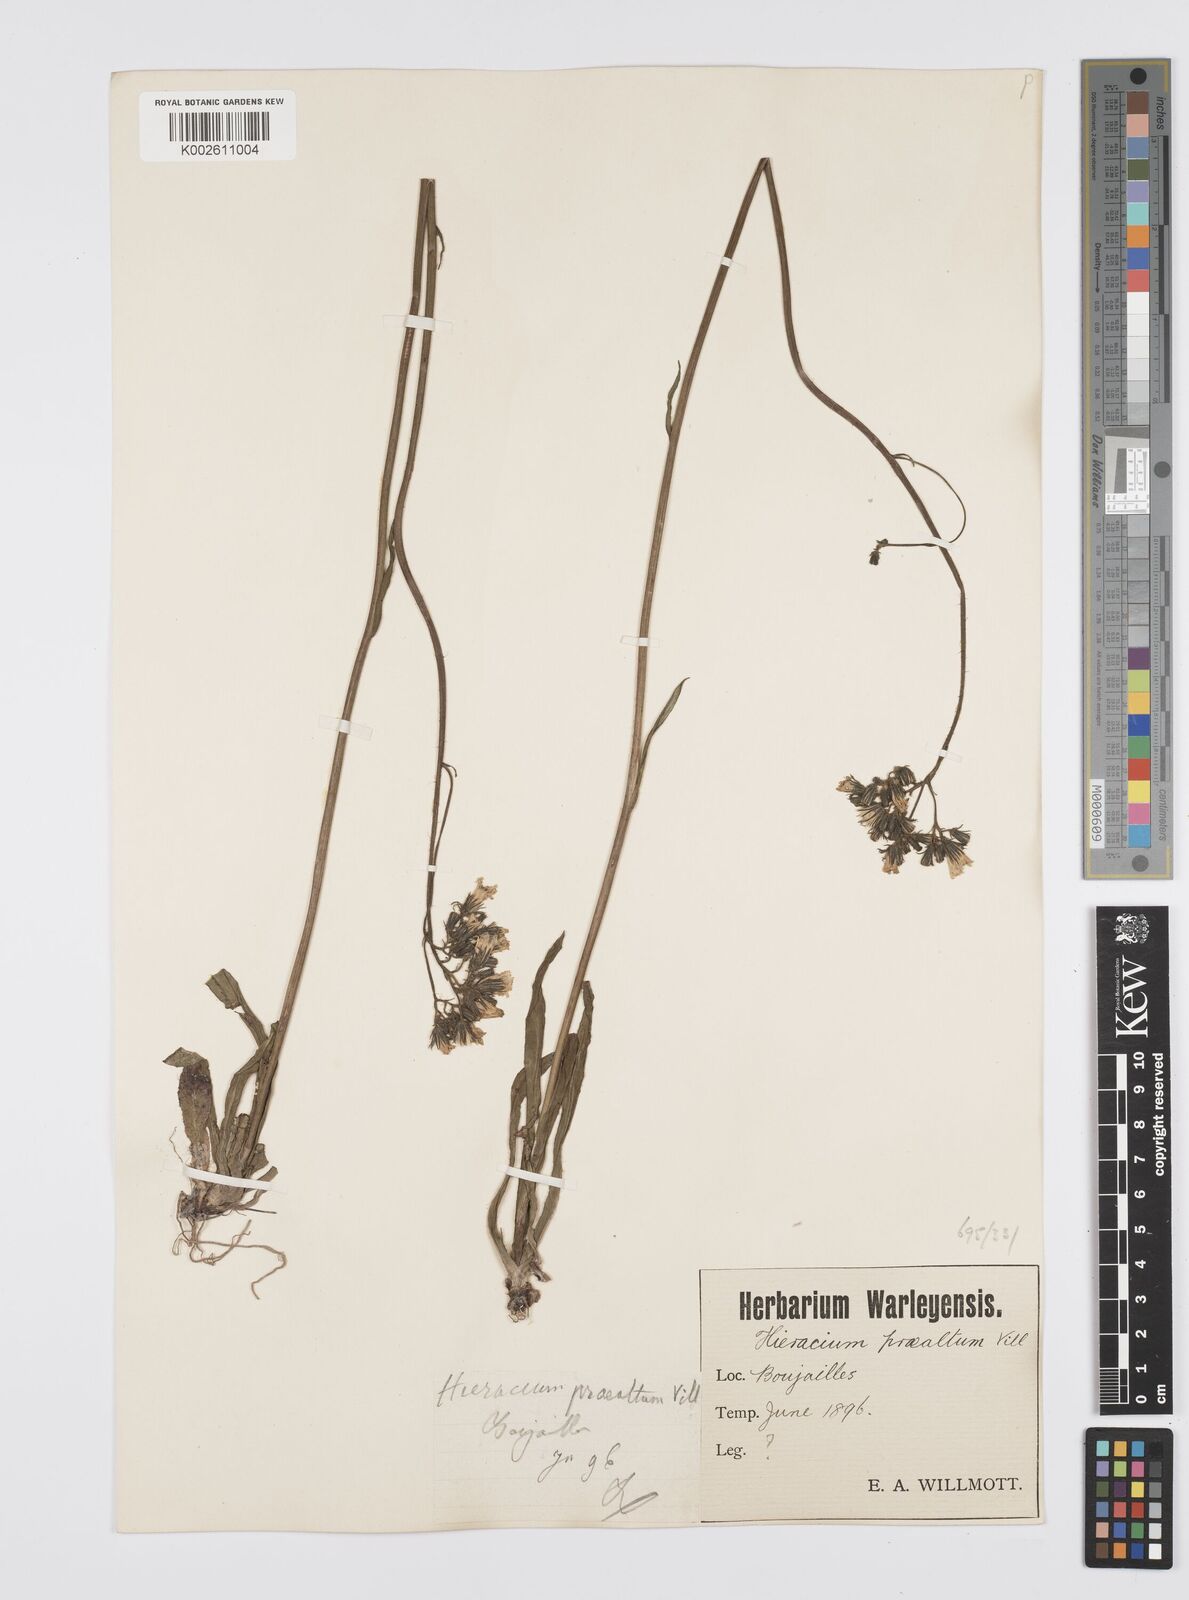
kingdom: Plantae
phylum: Tracheophyta
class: Magnoliopsida
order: Asterales
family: Asteraceae
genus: Pilosella
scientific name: Pilosella piloselloides
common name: Glaucous king-devil
